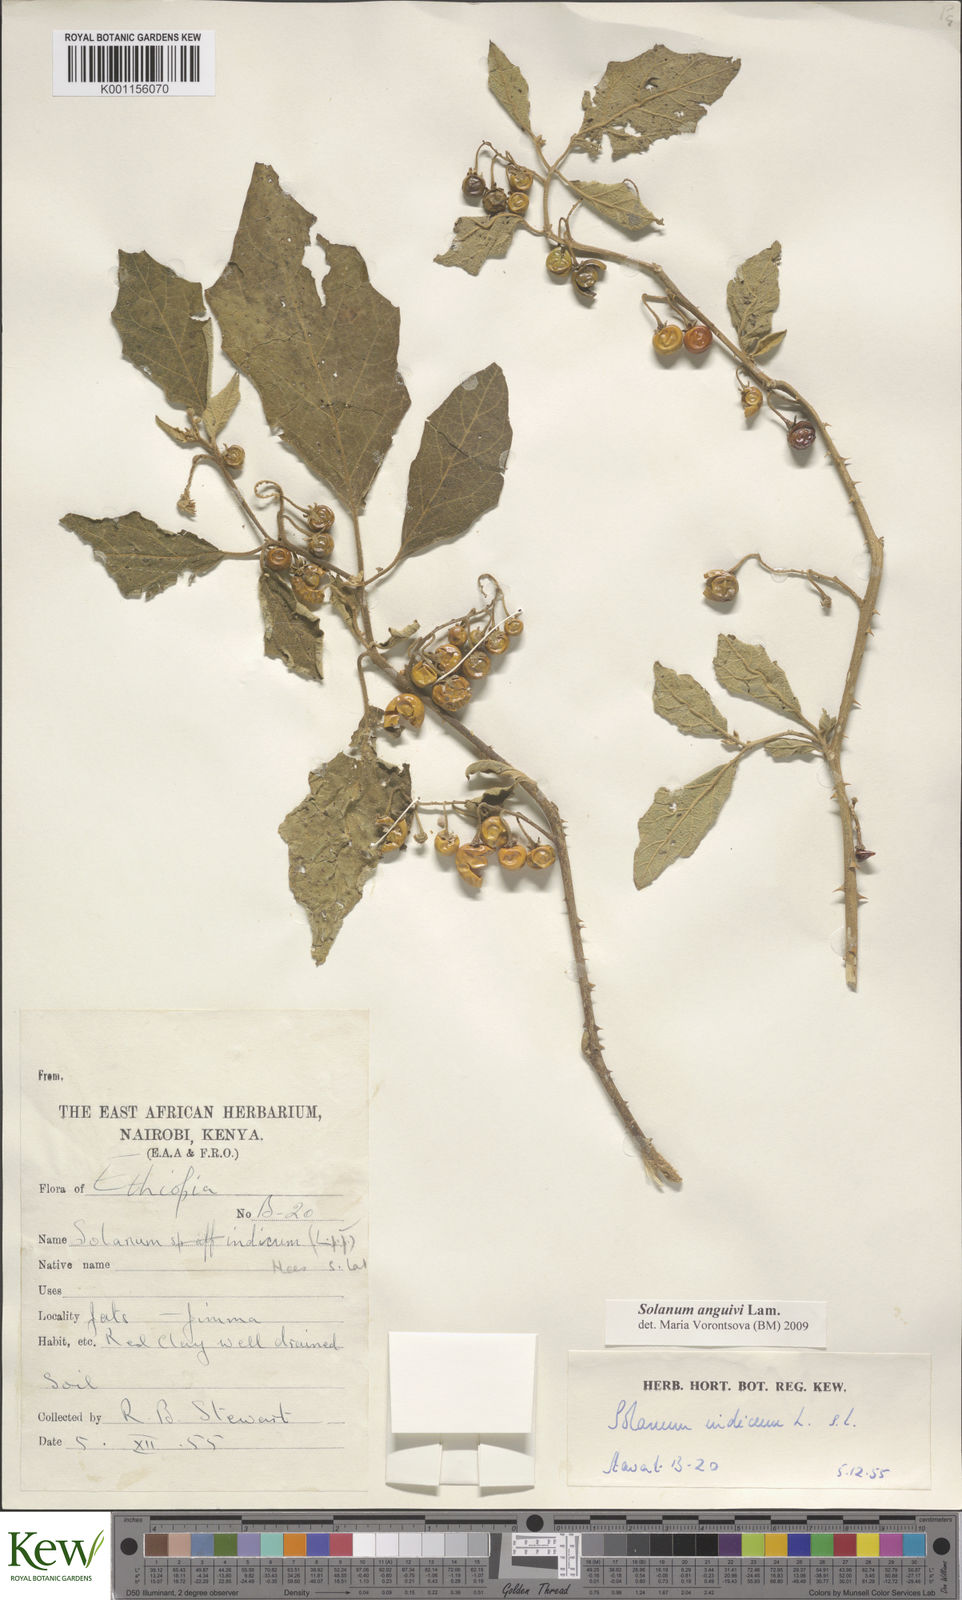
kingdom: Plantae
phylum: Tracheophyta
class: Magnoliopsida
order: Solanales
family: Solanaceae
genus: Solanum
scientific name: Solanum anguivi
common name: Forest bitterberry
